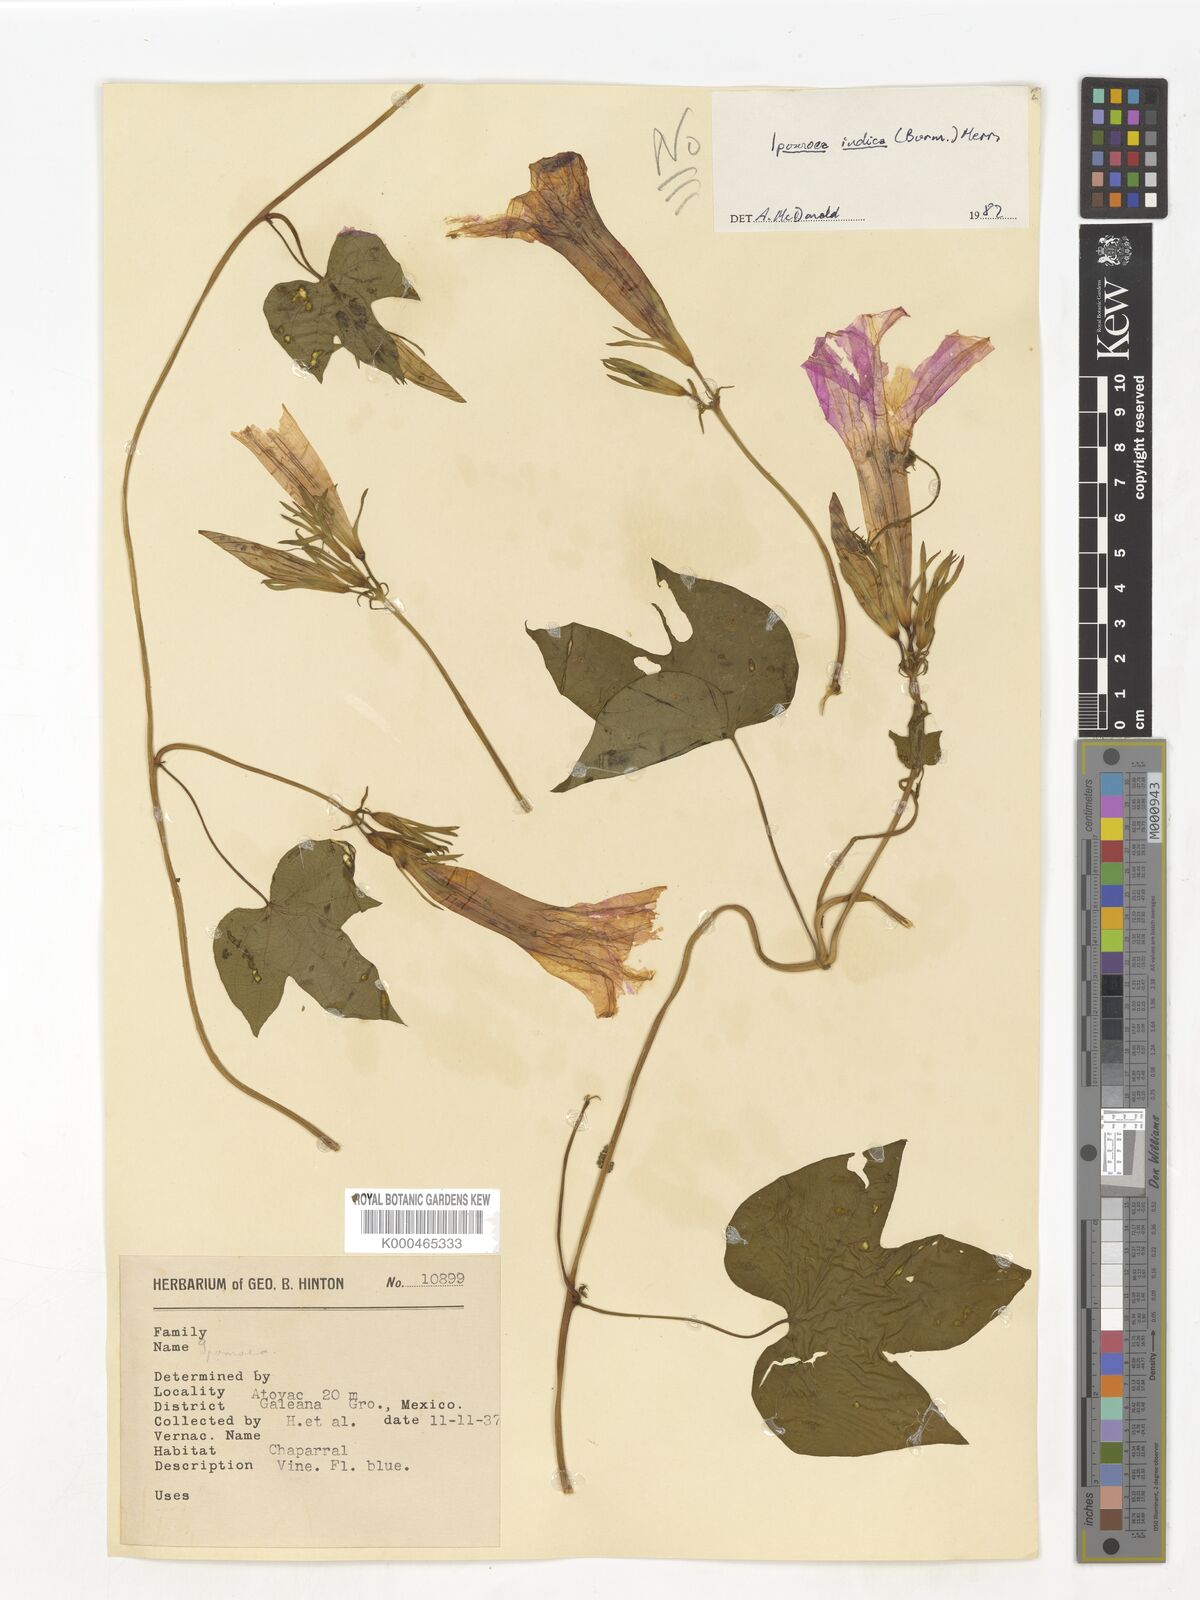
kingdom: Plantae
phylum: Tracheophyta
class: Magnoliopsida
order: Solanales
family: Convolvulaceae
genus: Ipomoea
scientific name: Ipomoea indica
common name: Blue dawnflower
